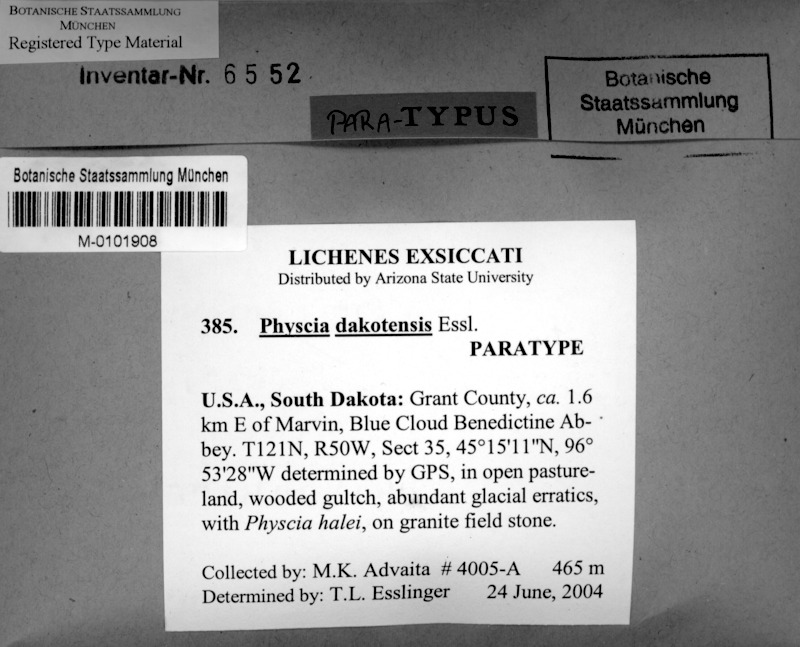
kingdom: Fungi
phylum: Ascomycota
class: Lecanoromycetes
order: Caliciales
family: Physciaceae
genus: Physcia
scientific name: Physcia dakotensis
